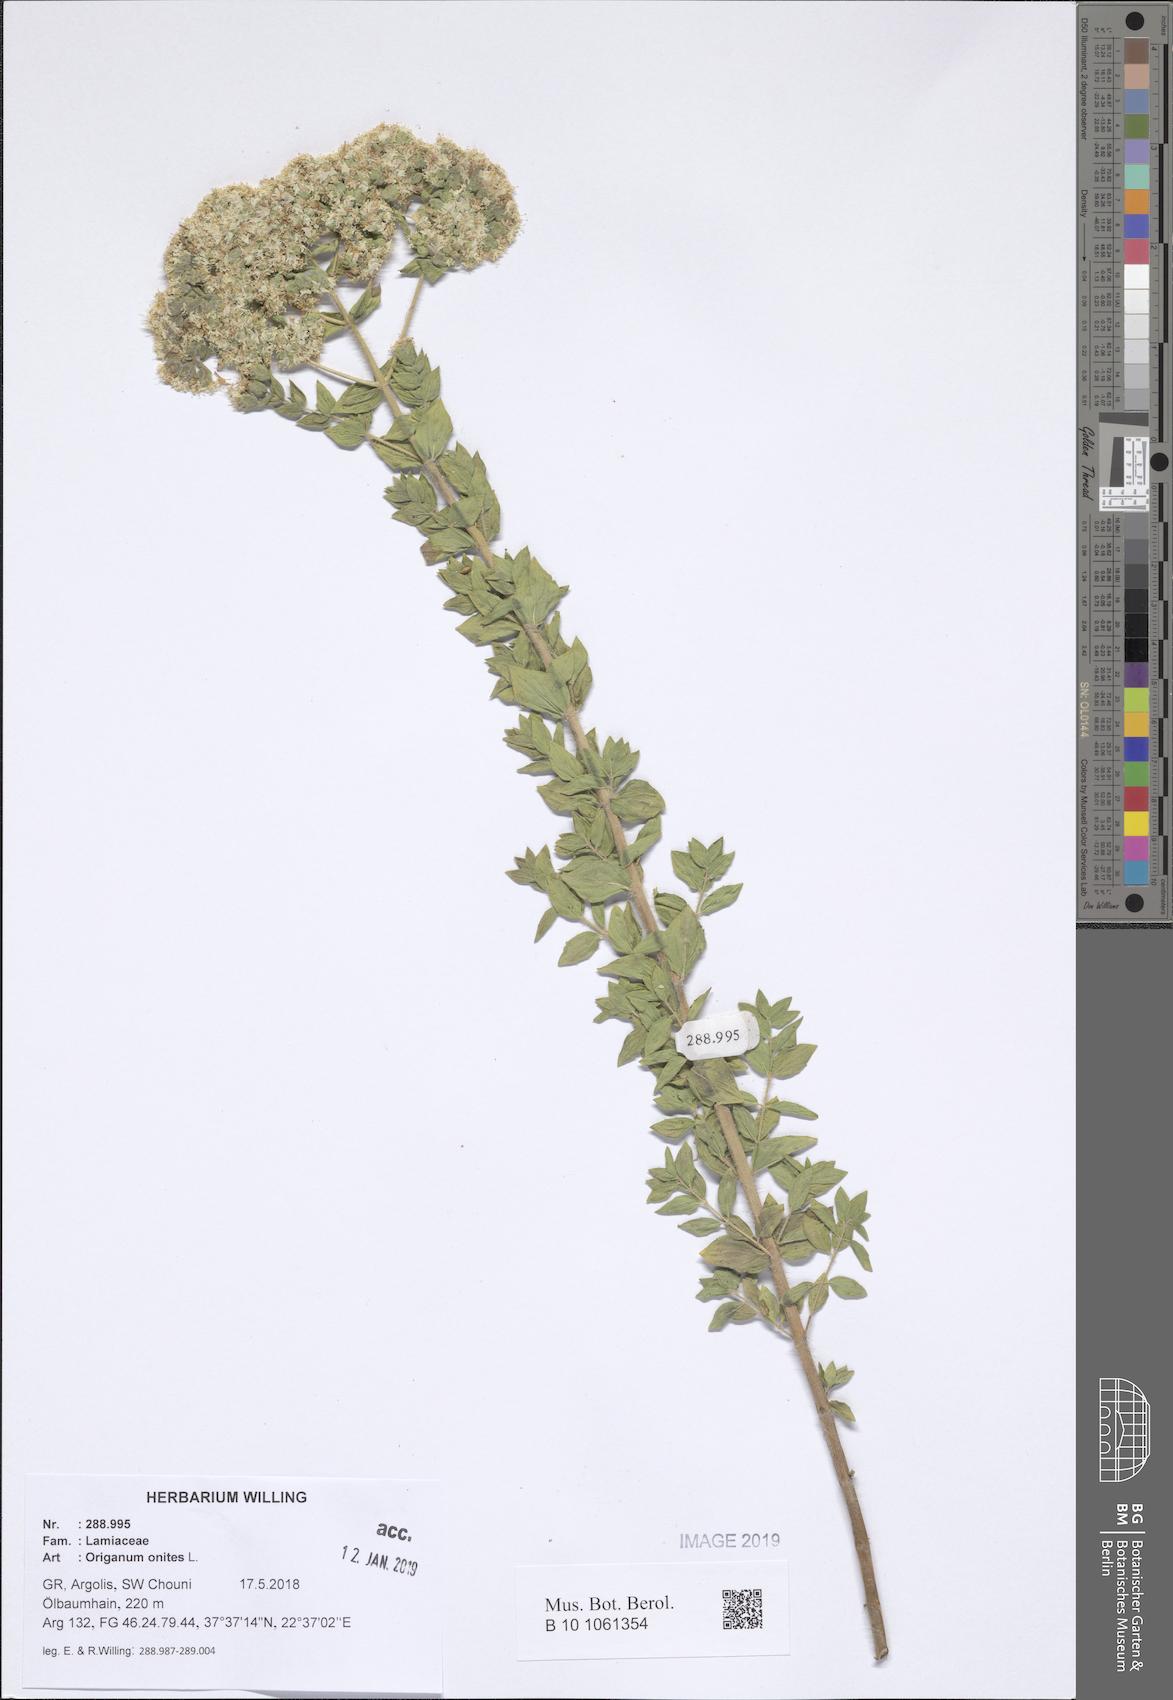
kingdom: Plantae
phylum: Tracheophyta
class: Magnoliopsida
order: Lamiales
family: Lamiaceae
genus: Origanum
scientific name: Origanum onites
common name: Turkish oregano
